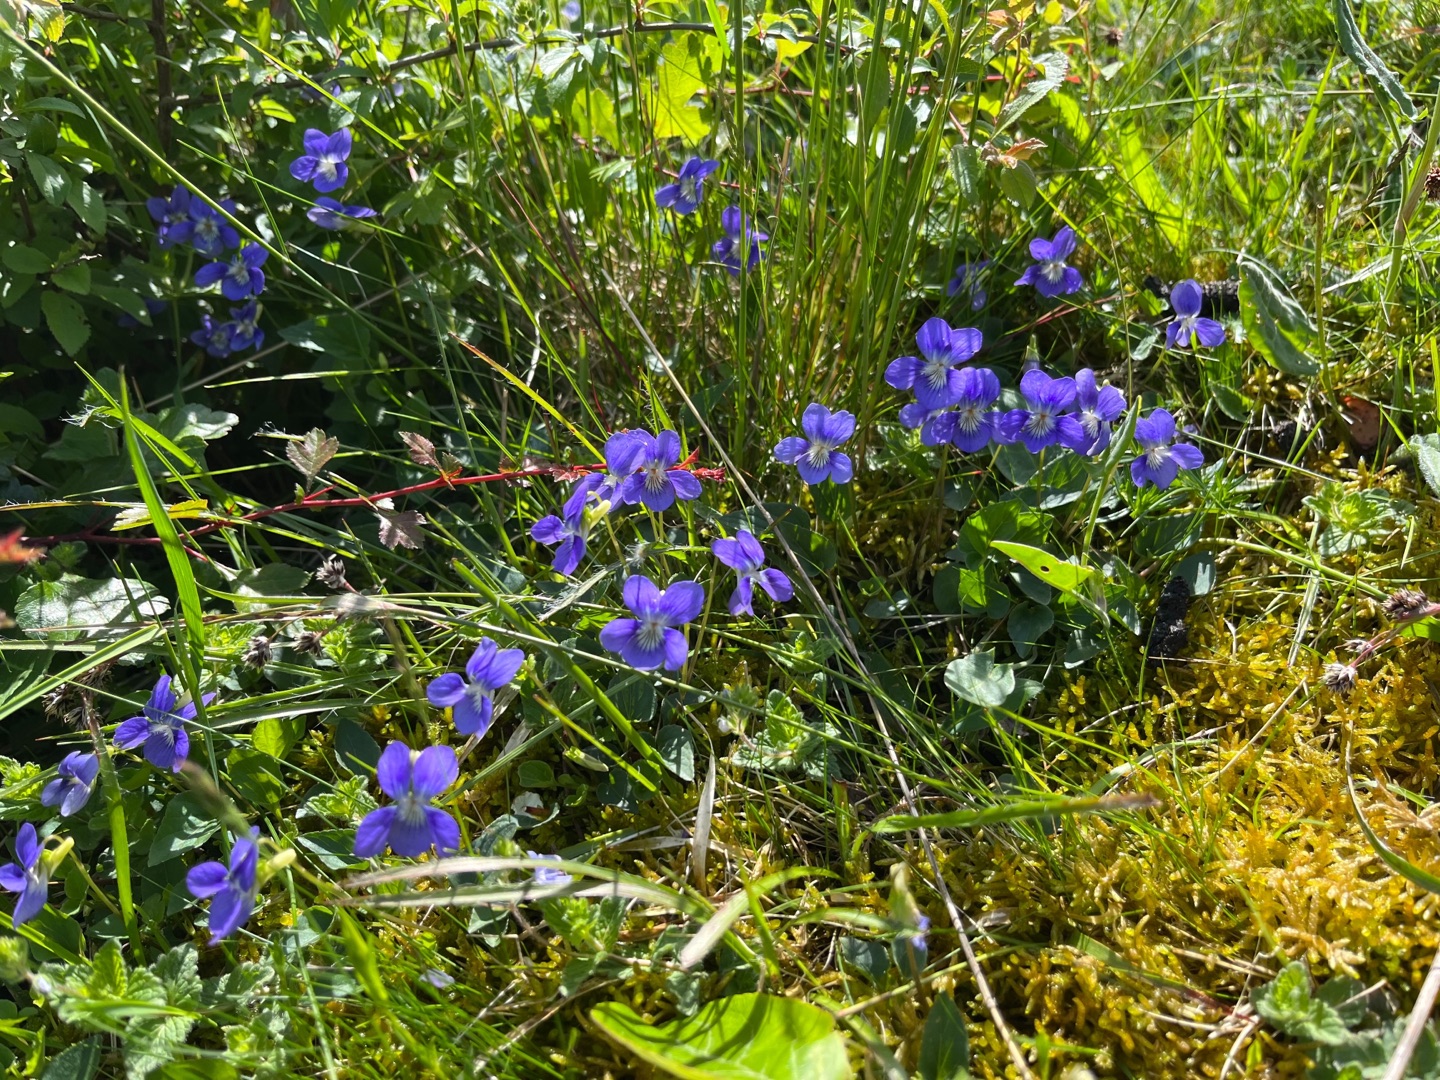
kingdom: Plantae
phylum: Tracheophyta
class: Magnoliopsida
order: Malpighiales
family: Violaceae
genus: Viola
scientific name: Viola canina
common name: Hunde-viol
